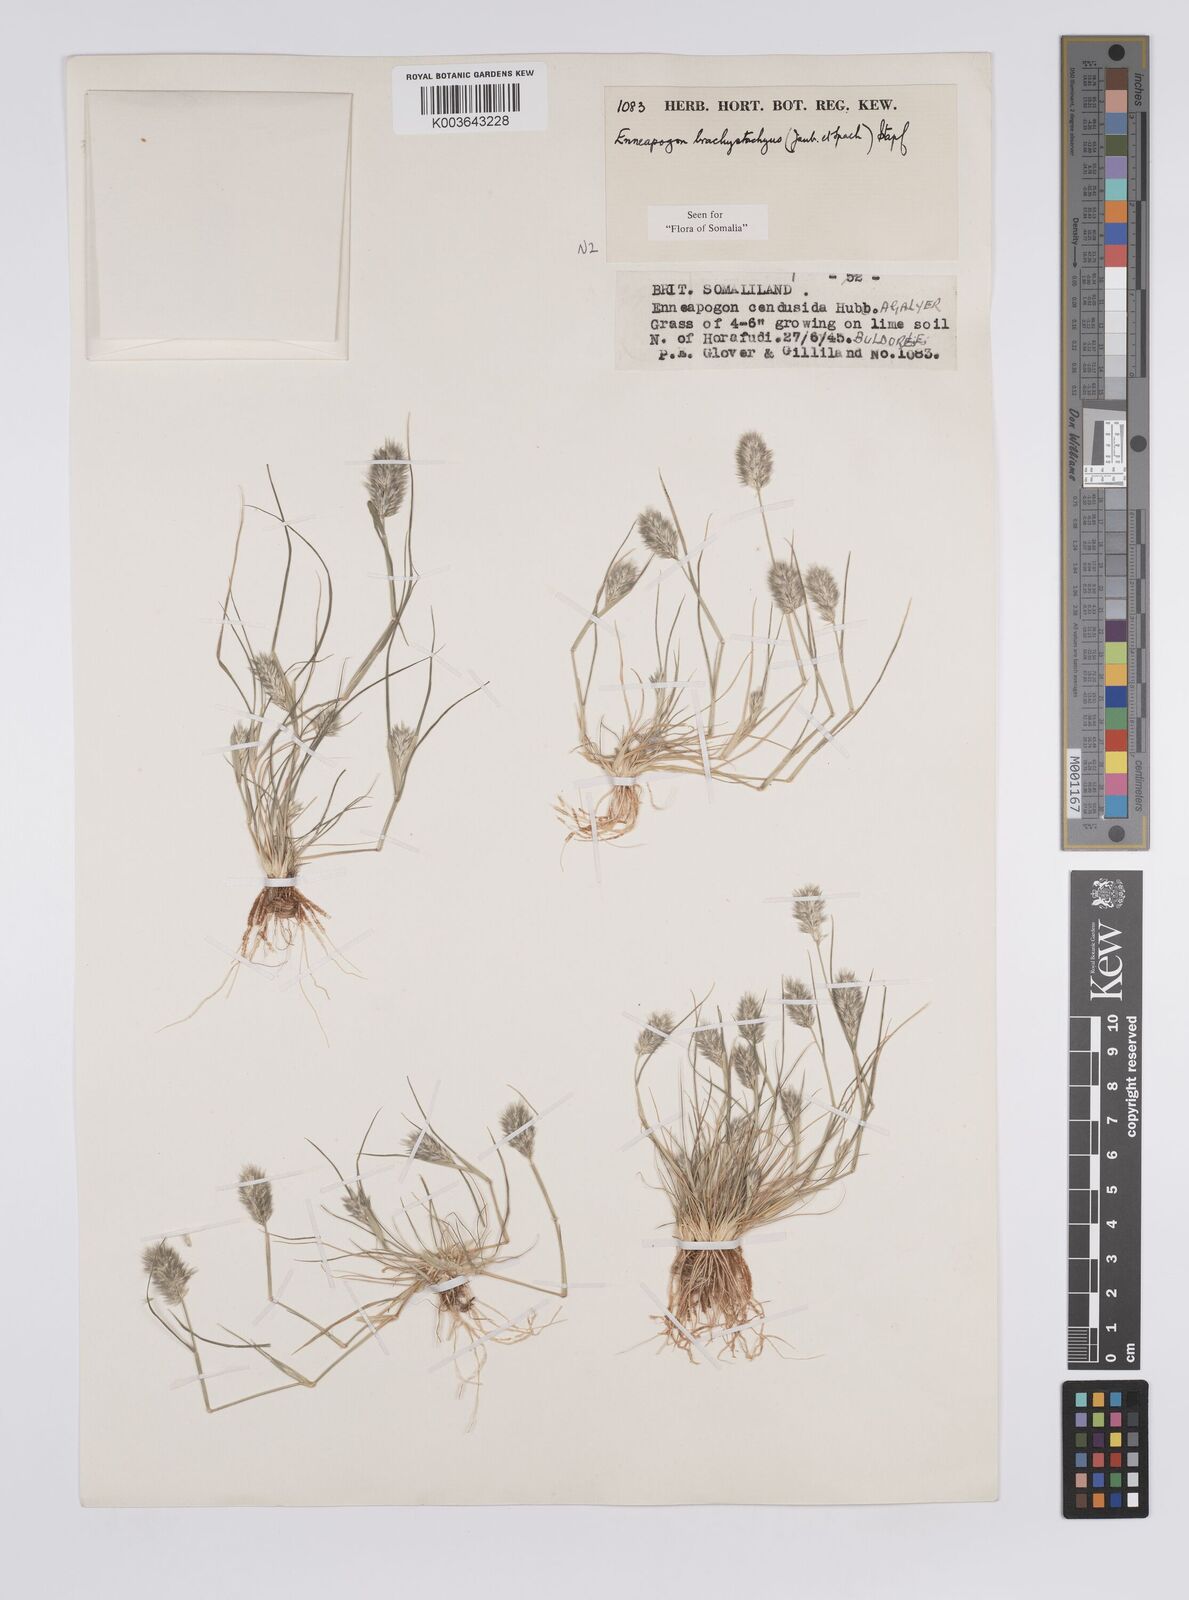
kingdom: Plantae
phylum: Tracheophyta
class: Liliopsida
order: Poales
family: Poaceae
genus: Enneapogon
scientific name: Enneapogon desvauxii
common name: Feather pappus grass
